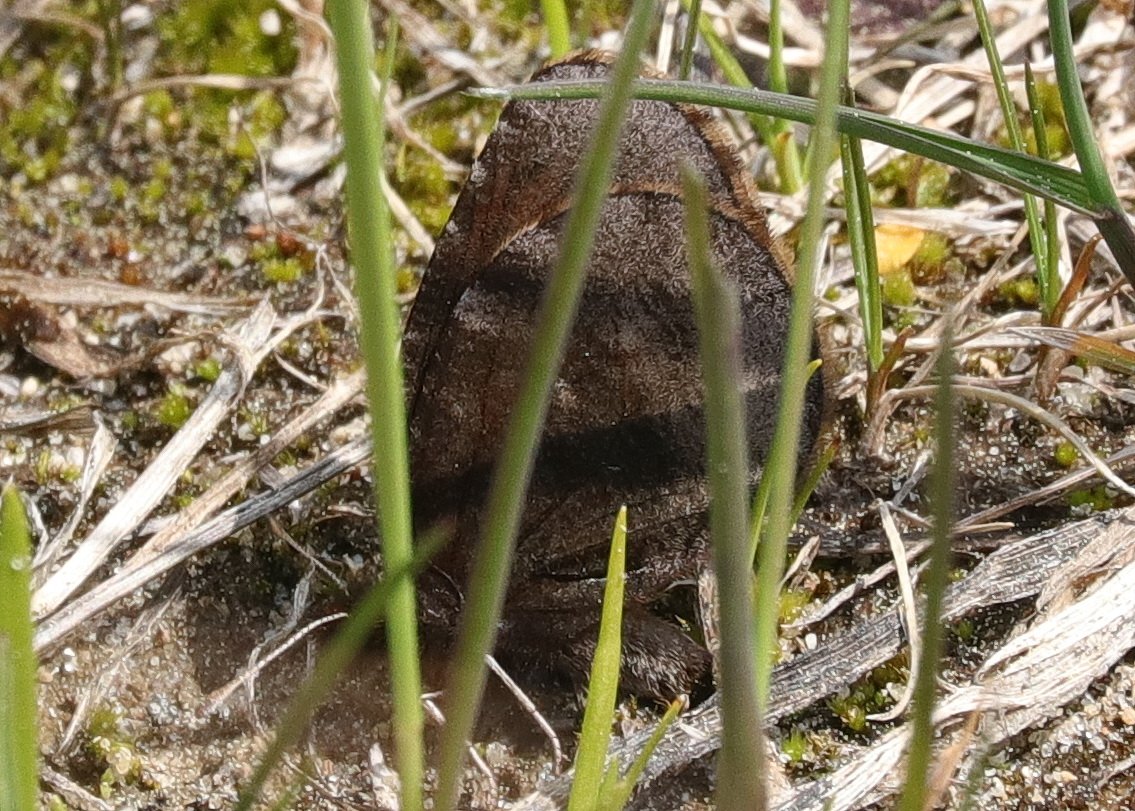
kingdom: Animalia
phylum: Arthropoda
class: Insecta
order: Lepidoptera
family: Nymphalidae
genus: Erebia
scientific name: Erebia discoidalis
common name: Red-disked Alpine
